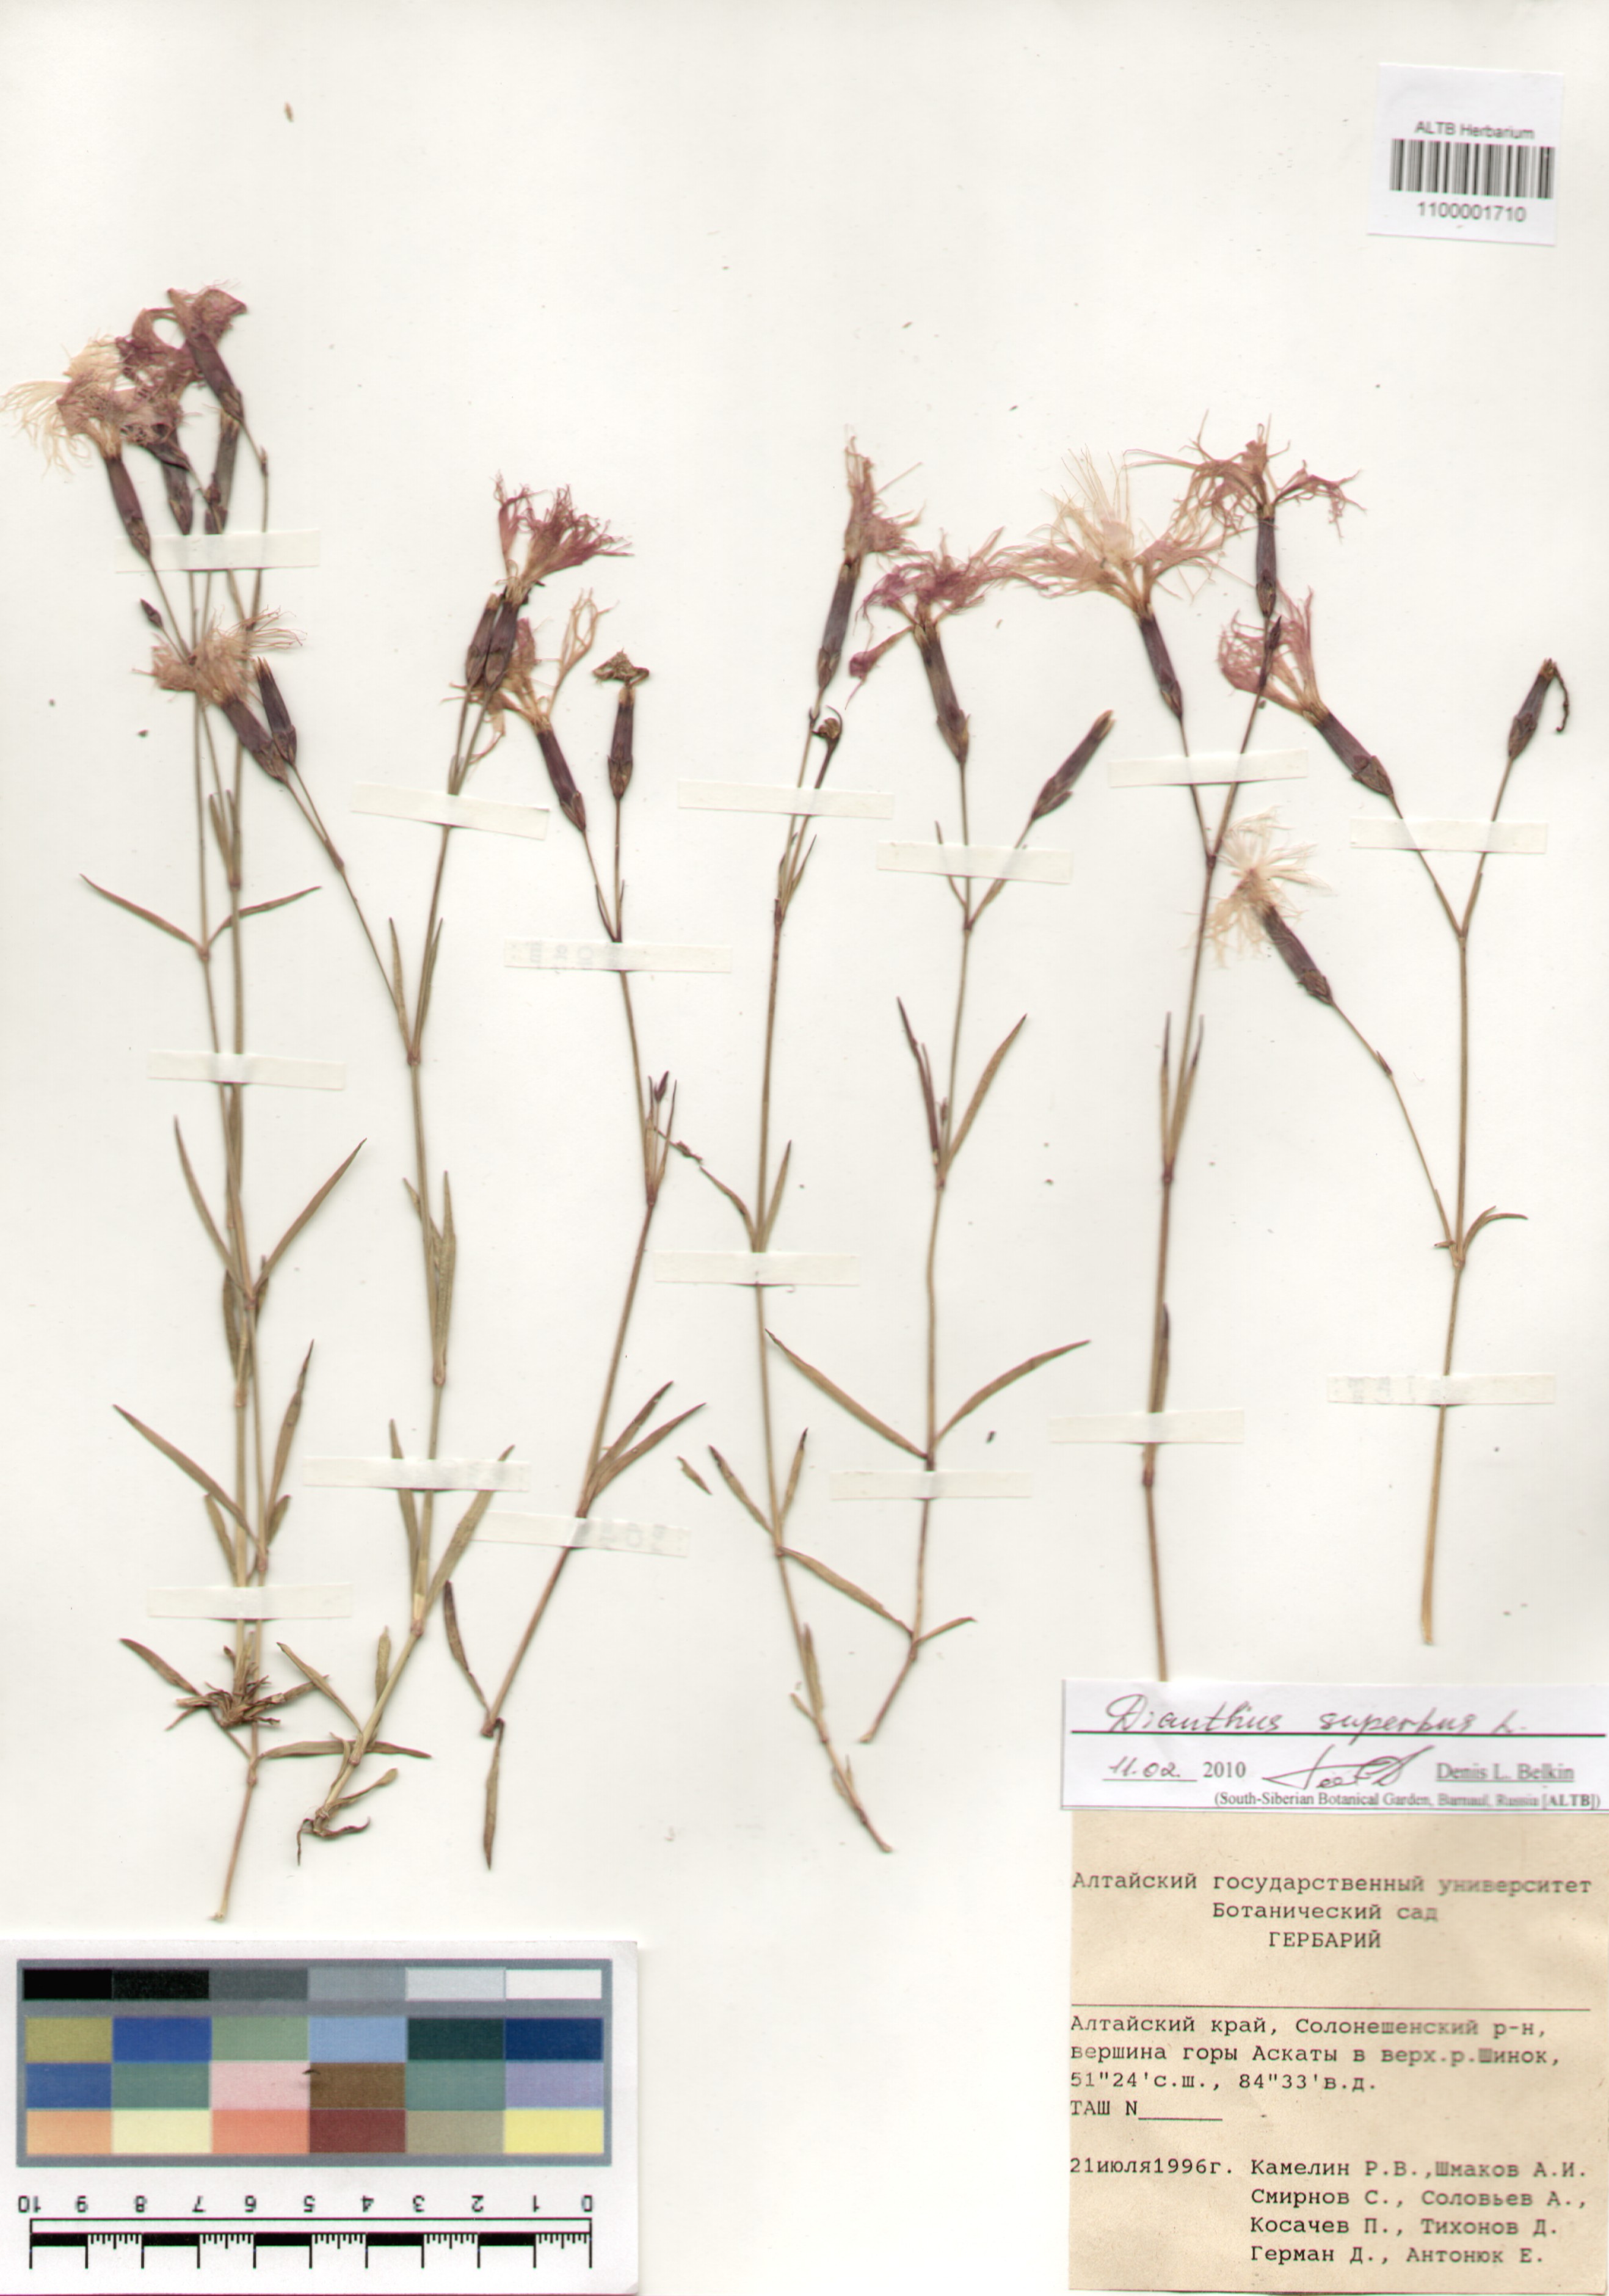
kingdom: Plantae
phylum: Tracheophyta
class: Magnoliopsida
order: Caryophyllales
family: Caryophyllaceae
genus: Dianthus
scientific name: Dianthus superbus
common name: Fringed pink
